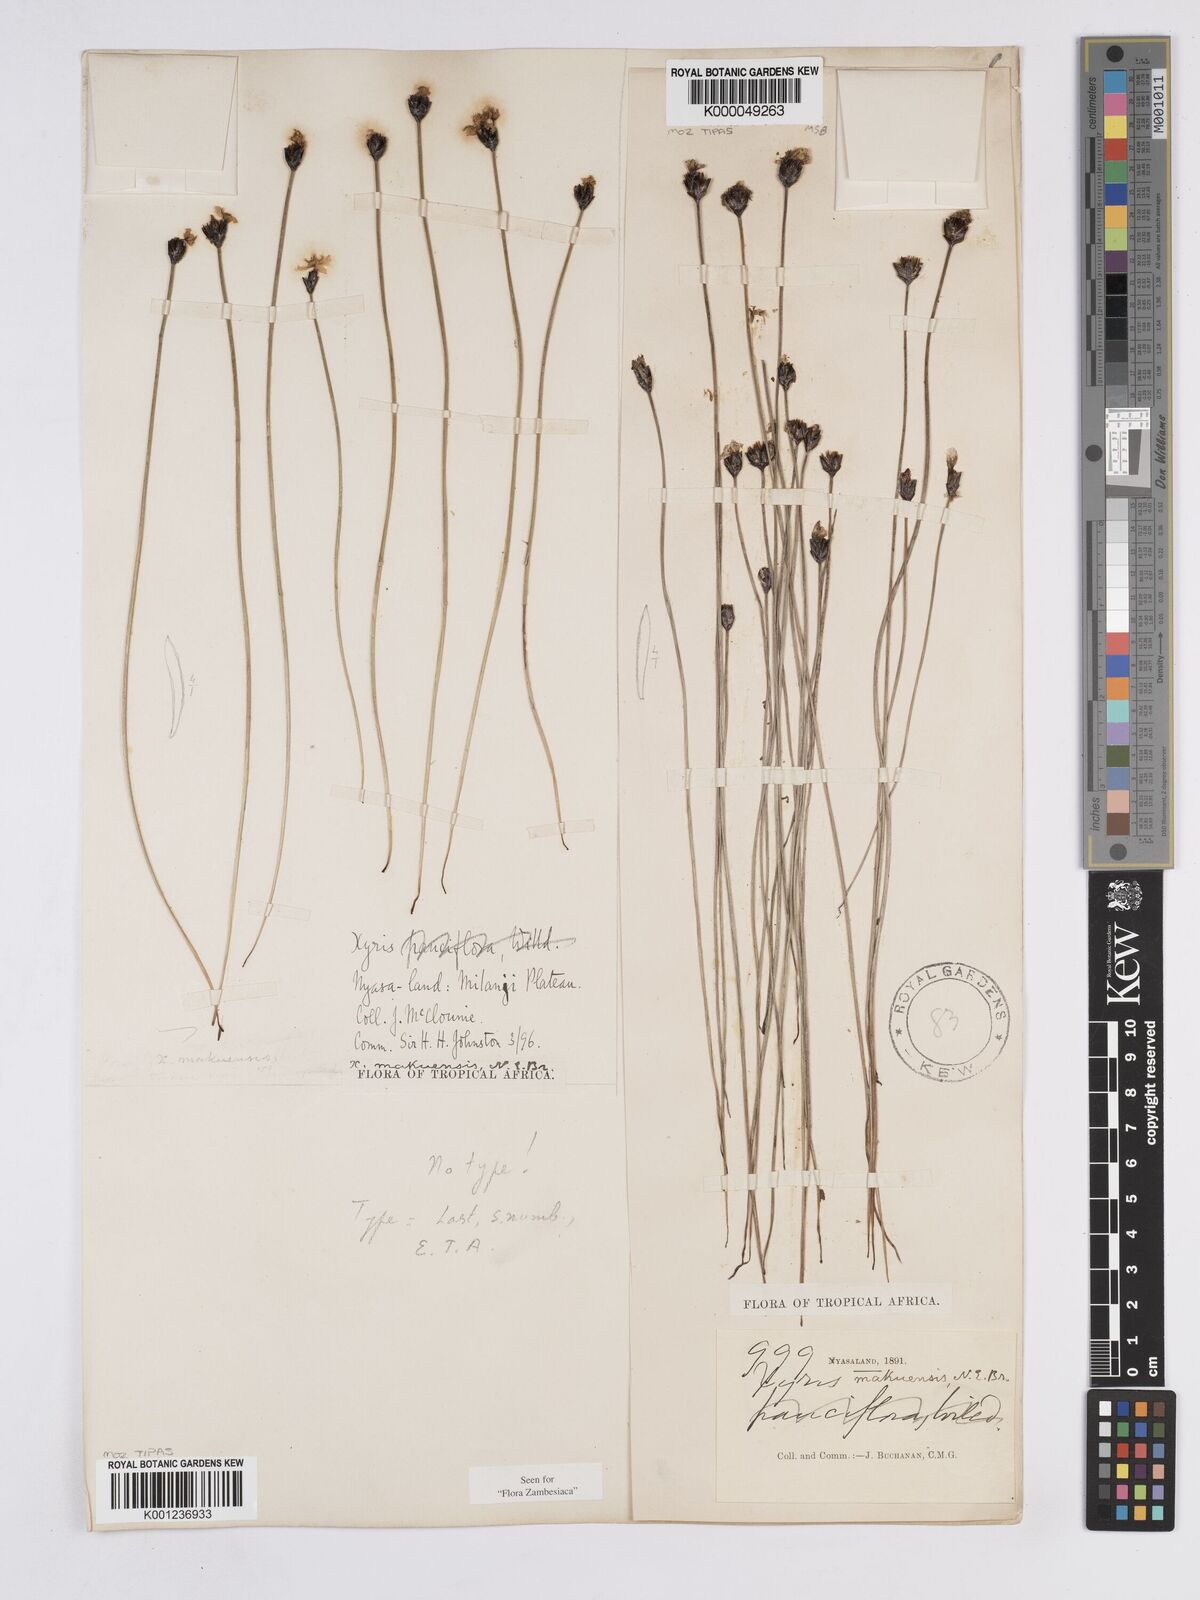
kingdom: Plantae
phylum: Tracheophyta
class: Liliopsida
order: Poales
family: Xyridaceae
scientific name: Xyridaceae
